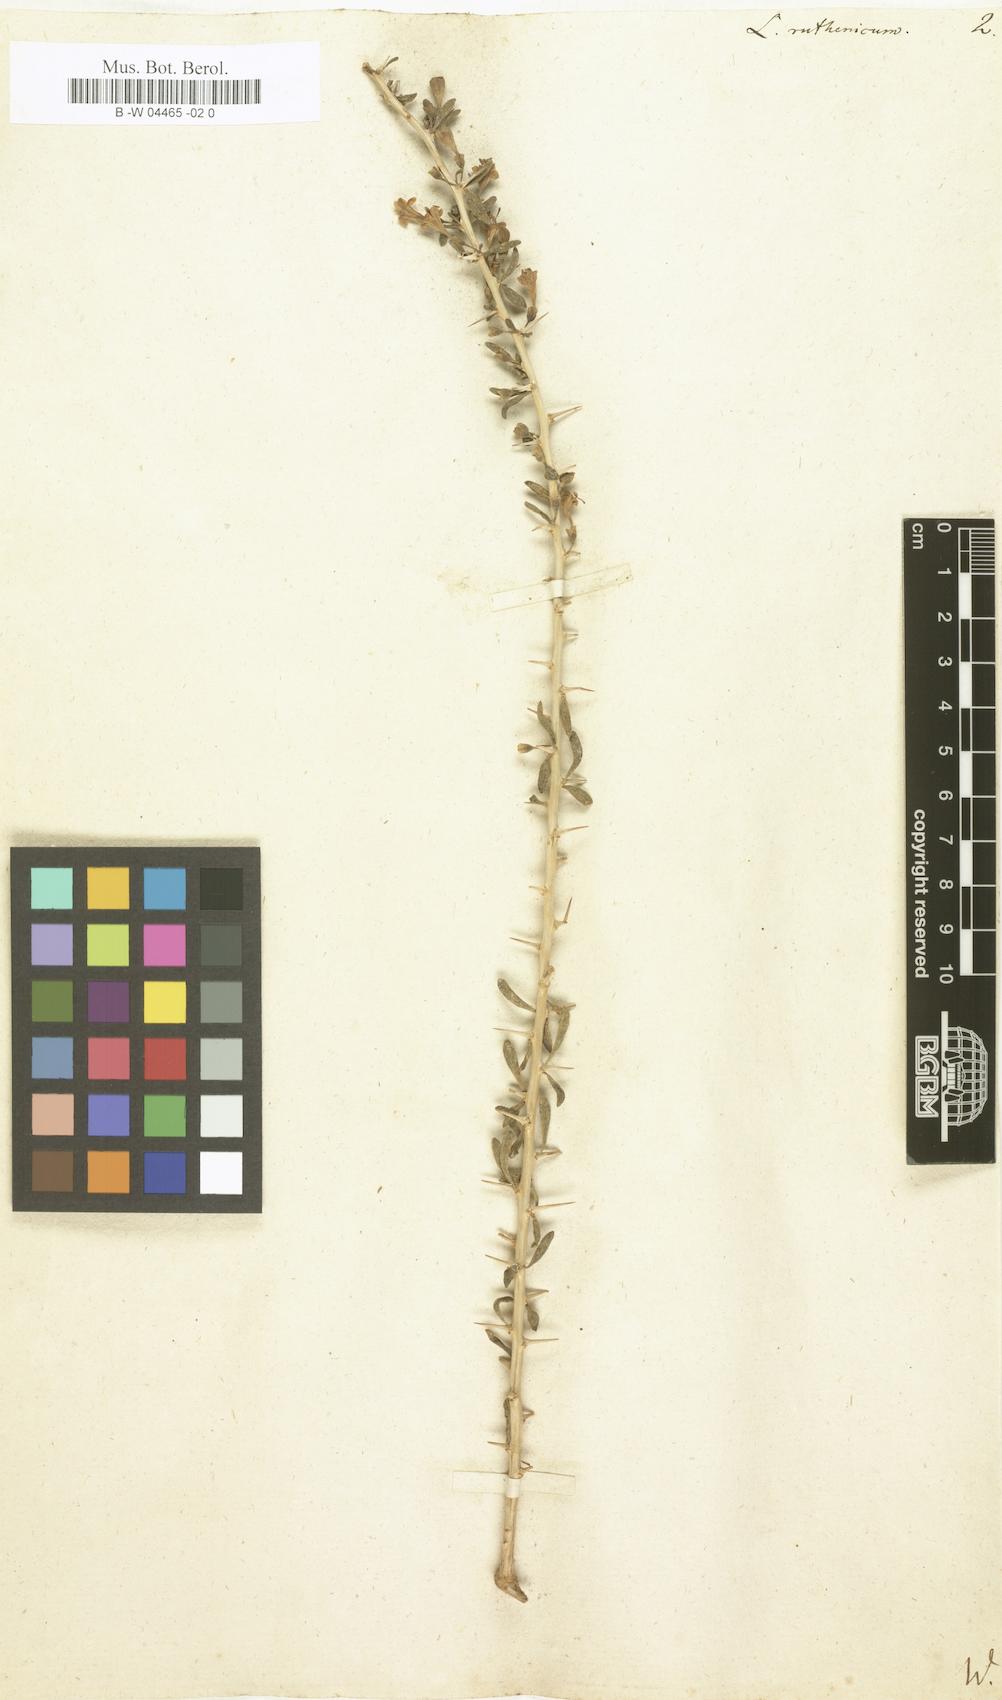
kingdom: Plantae
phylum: Tracheophyta
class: Magnoliopsida
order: Solanales
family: Solanaceae
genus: Lycium
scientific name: Lycium ruthenicum
